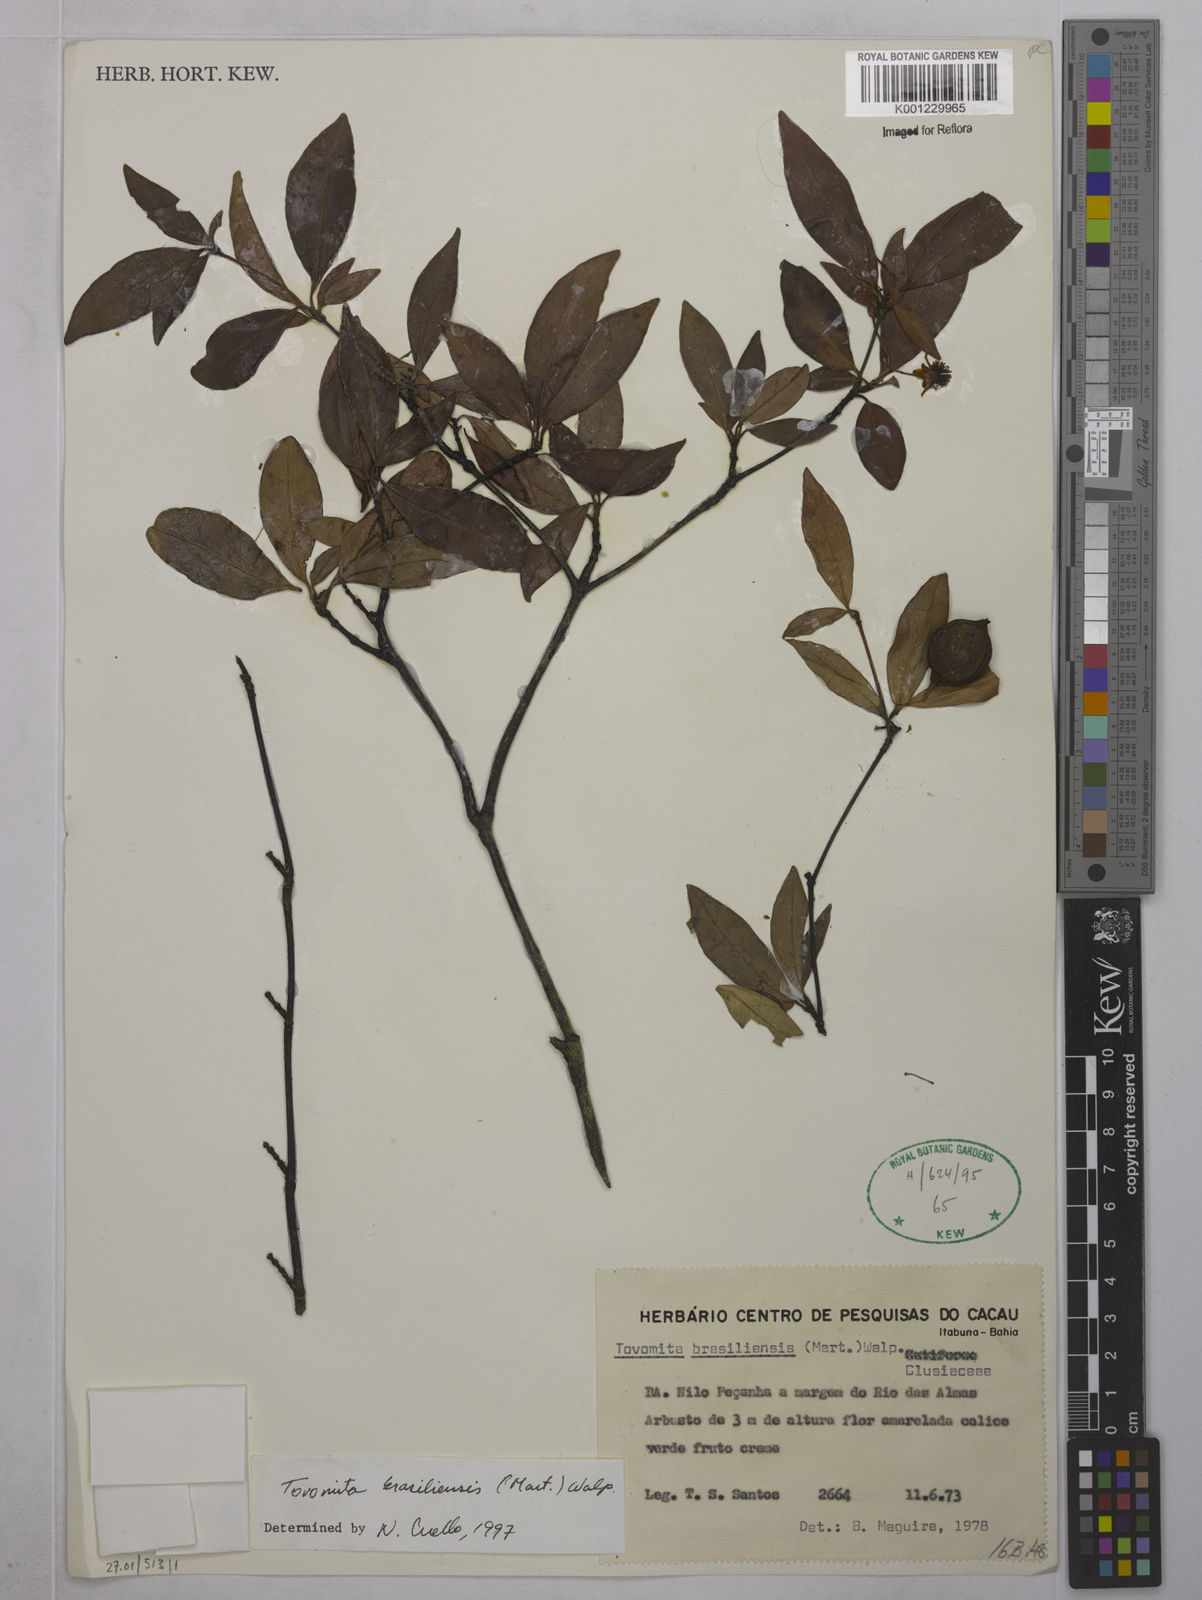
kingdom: Plantae
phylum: Tracheophyta
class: Magnoliopsida
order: Malpighiales
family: Clusiaceae
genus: Tovomita
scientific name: Tovomita
